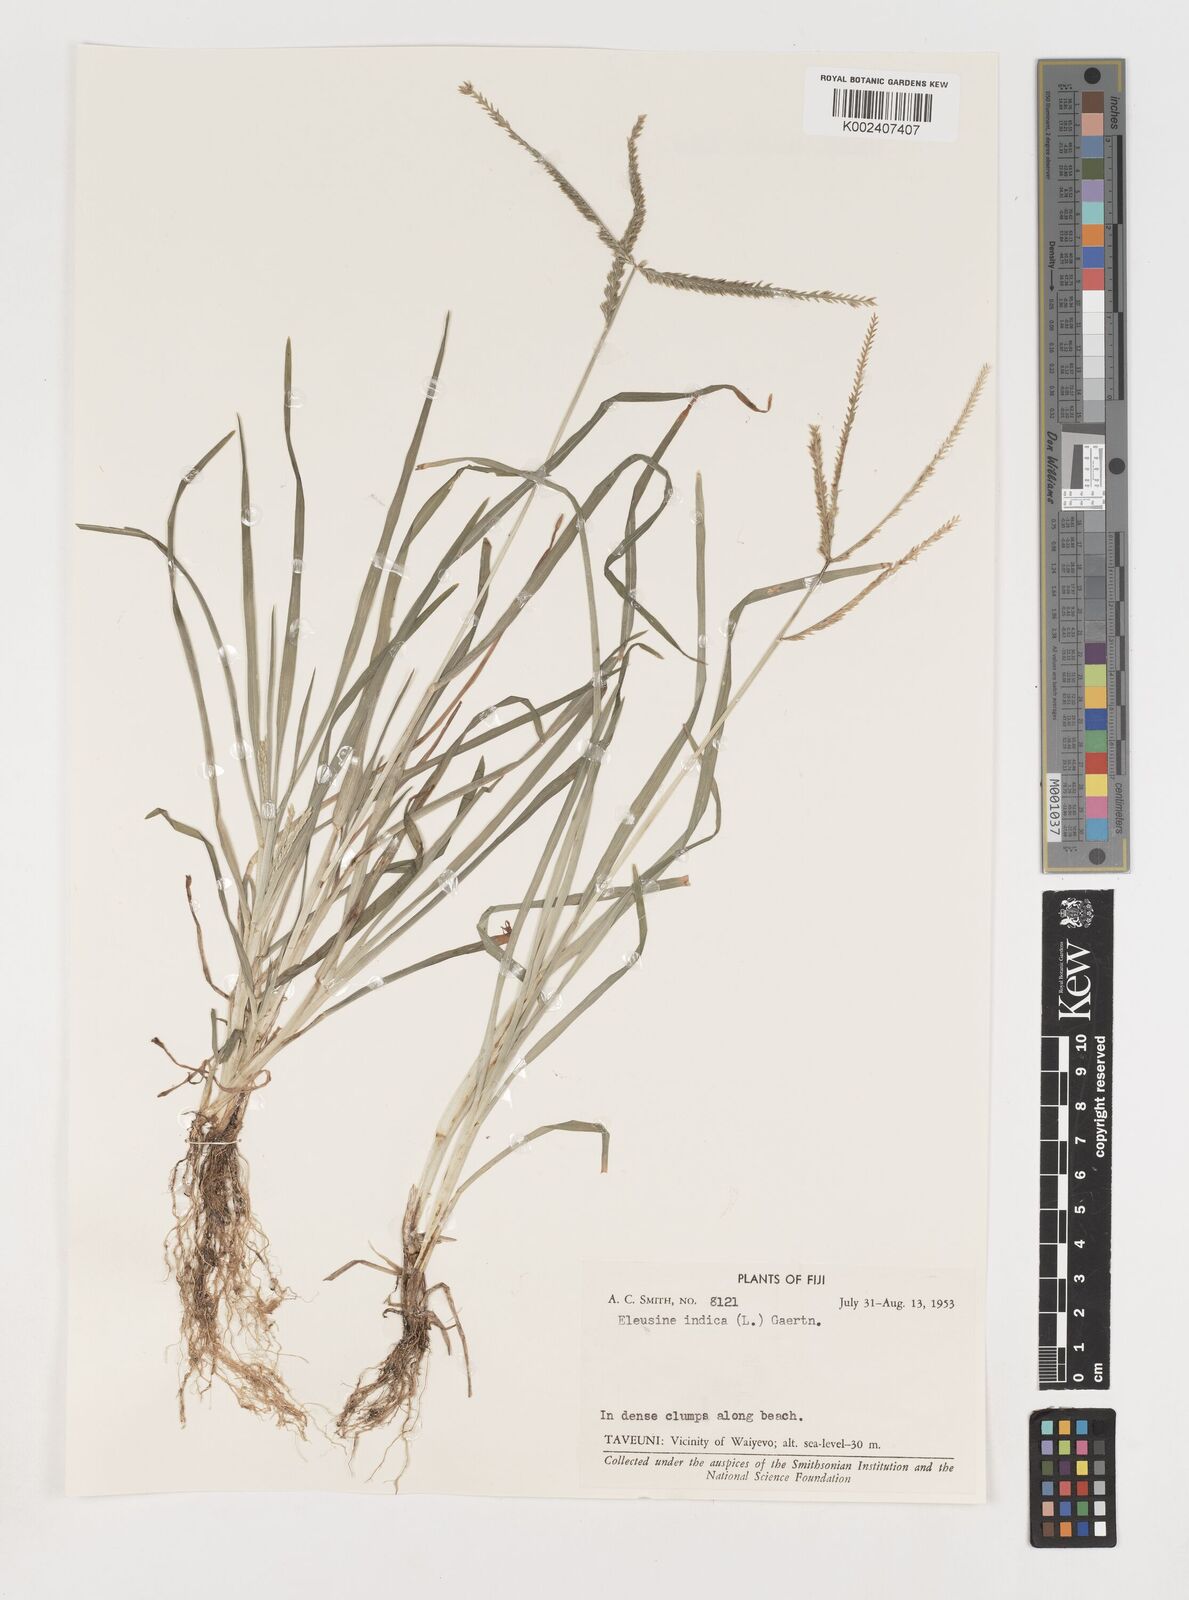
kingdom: Plantae
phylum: Tracheophyta
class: Liliopsida
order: Poales
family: Poaceae
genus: Eleusine
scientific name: Eleusine indica
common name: Yard-grass
